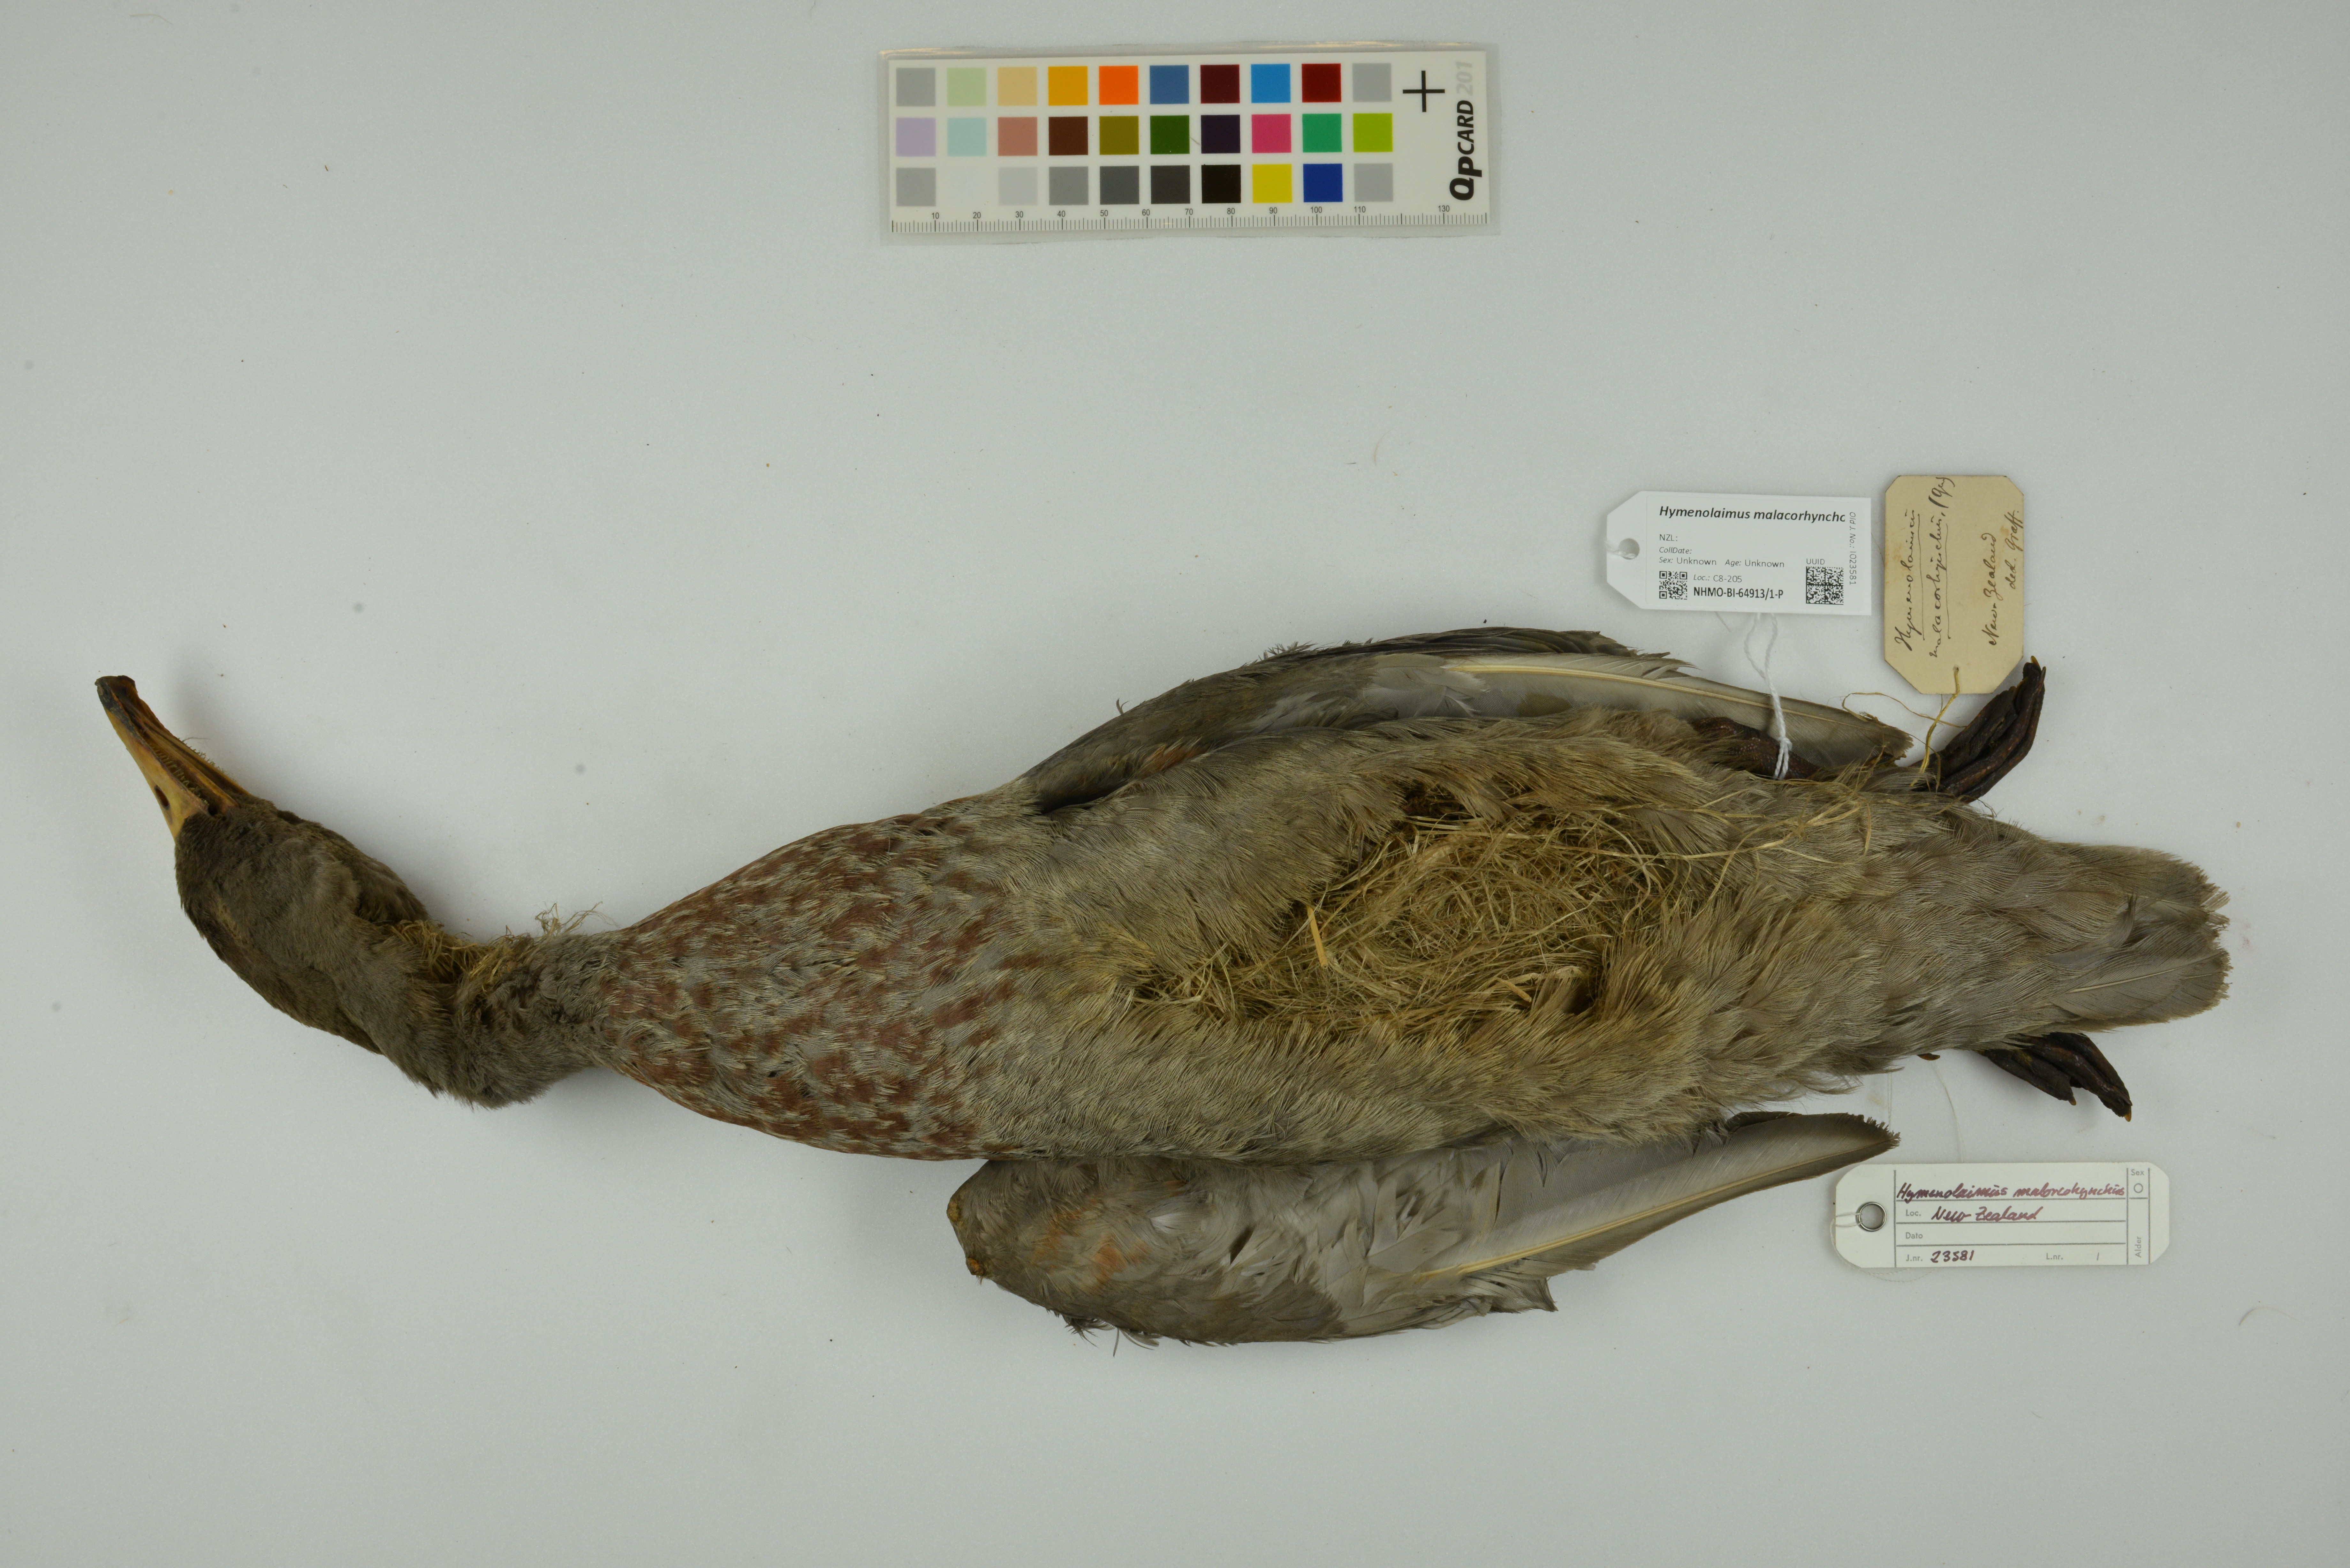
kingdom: Animalia
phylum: Chordata
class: Aves
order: Anseriformes
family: Anatidae
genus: Hymenolaimus
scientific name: Hymenolaimus malacorhynchos
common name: Blue duck
